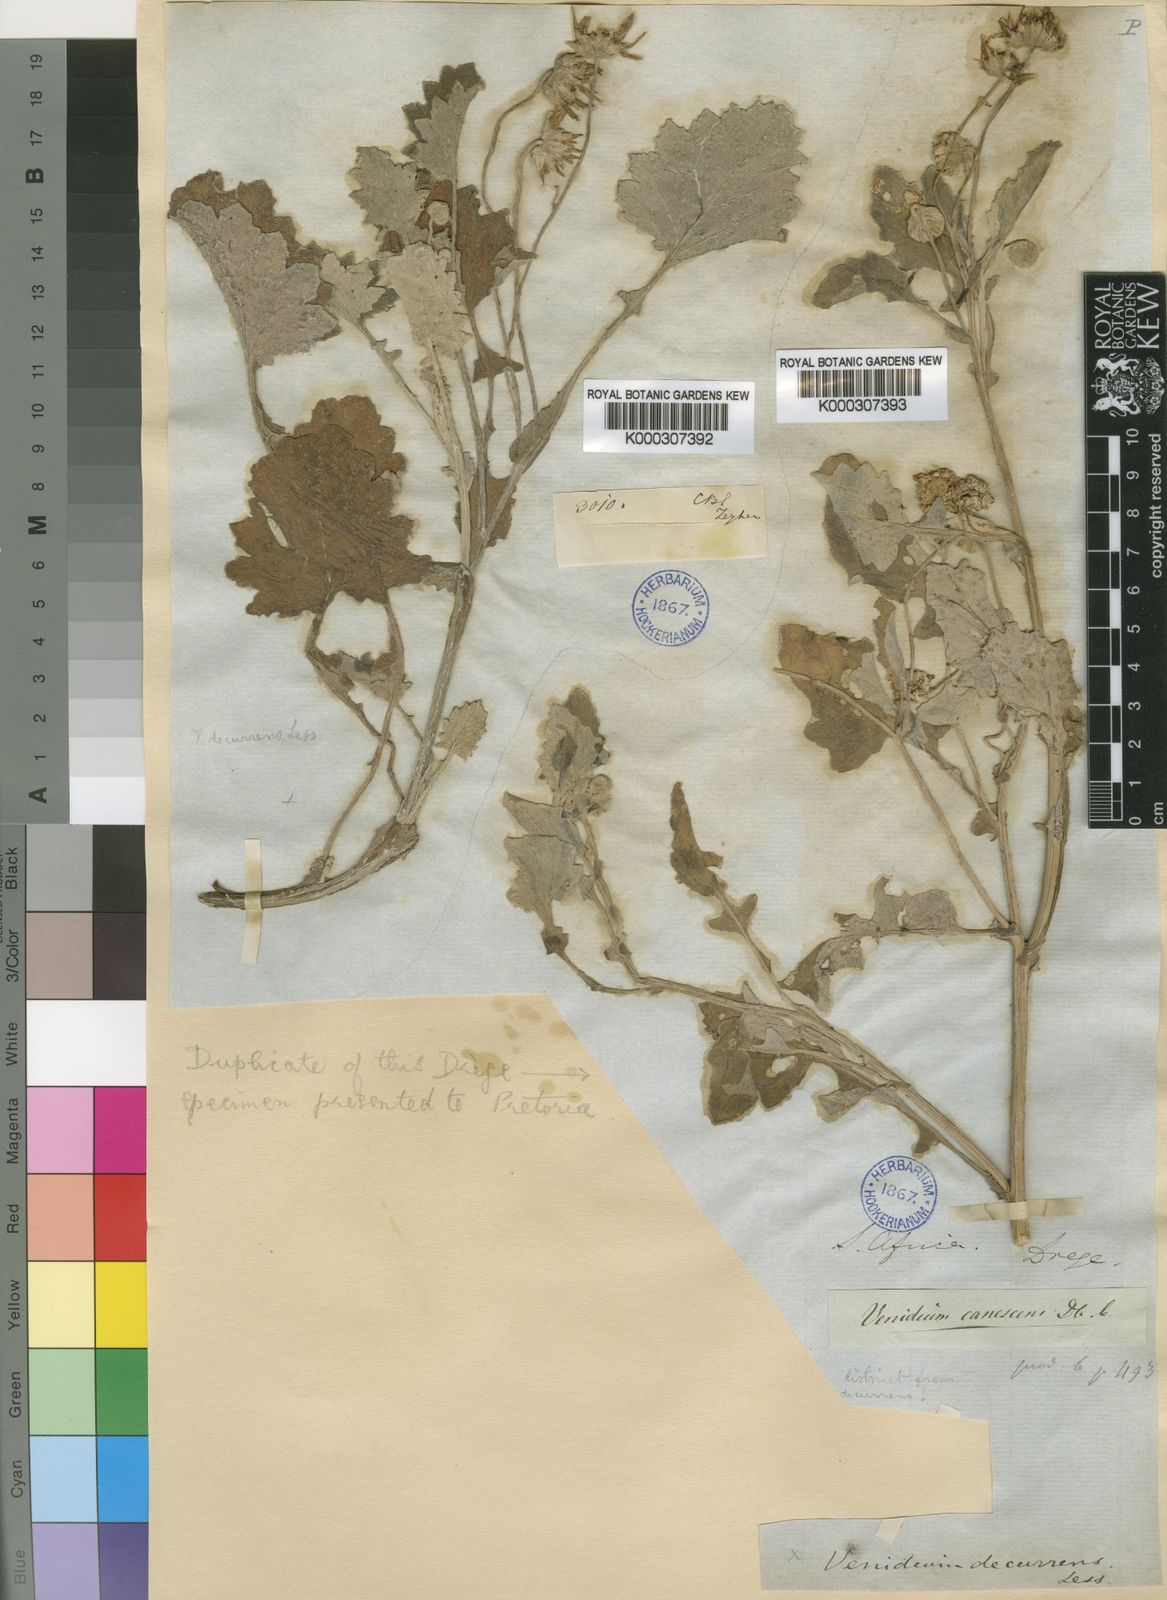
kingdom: Plantae
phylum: Tracheophyta
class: Magnoliopsida
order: Asterales
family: Asteraceae
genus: Arctotis
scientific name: Arctotis arctotoides
